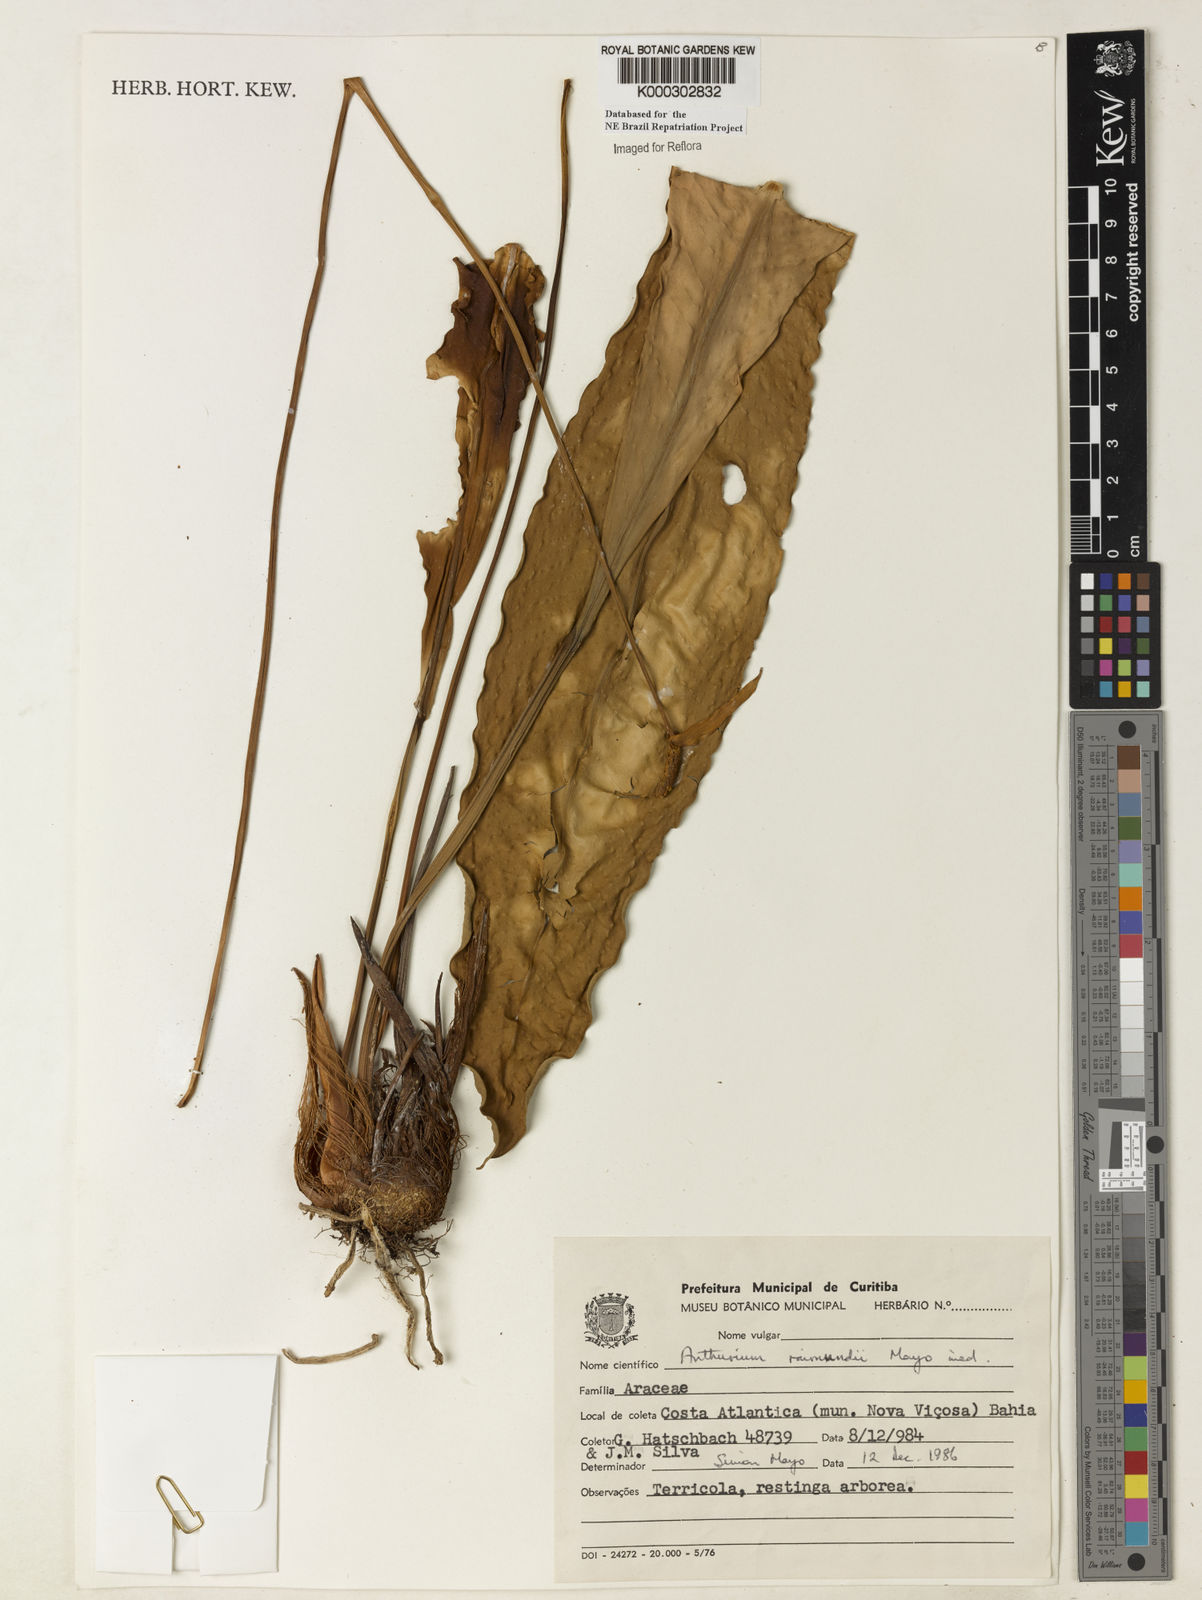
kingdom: Plantae
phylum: Tracheophyta
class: Liliopsida
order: Alismatales
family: Araceae
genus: Anthurium
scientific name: Anthurium raimundii
